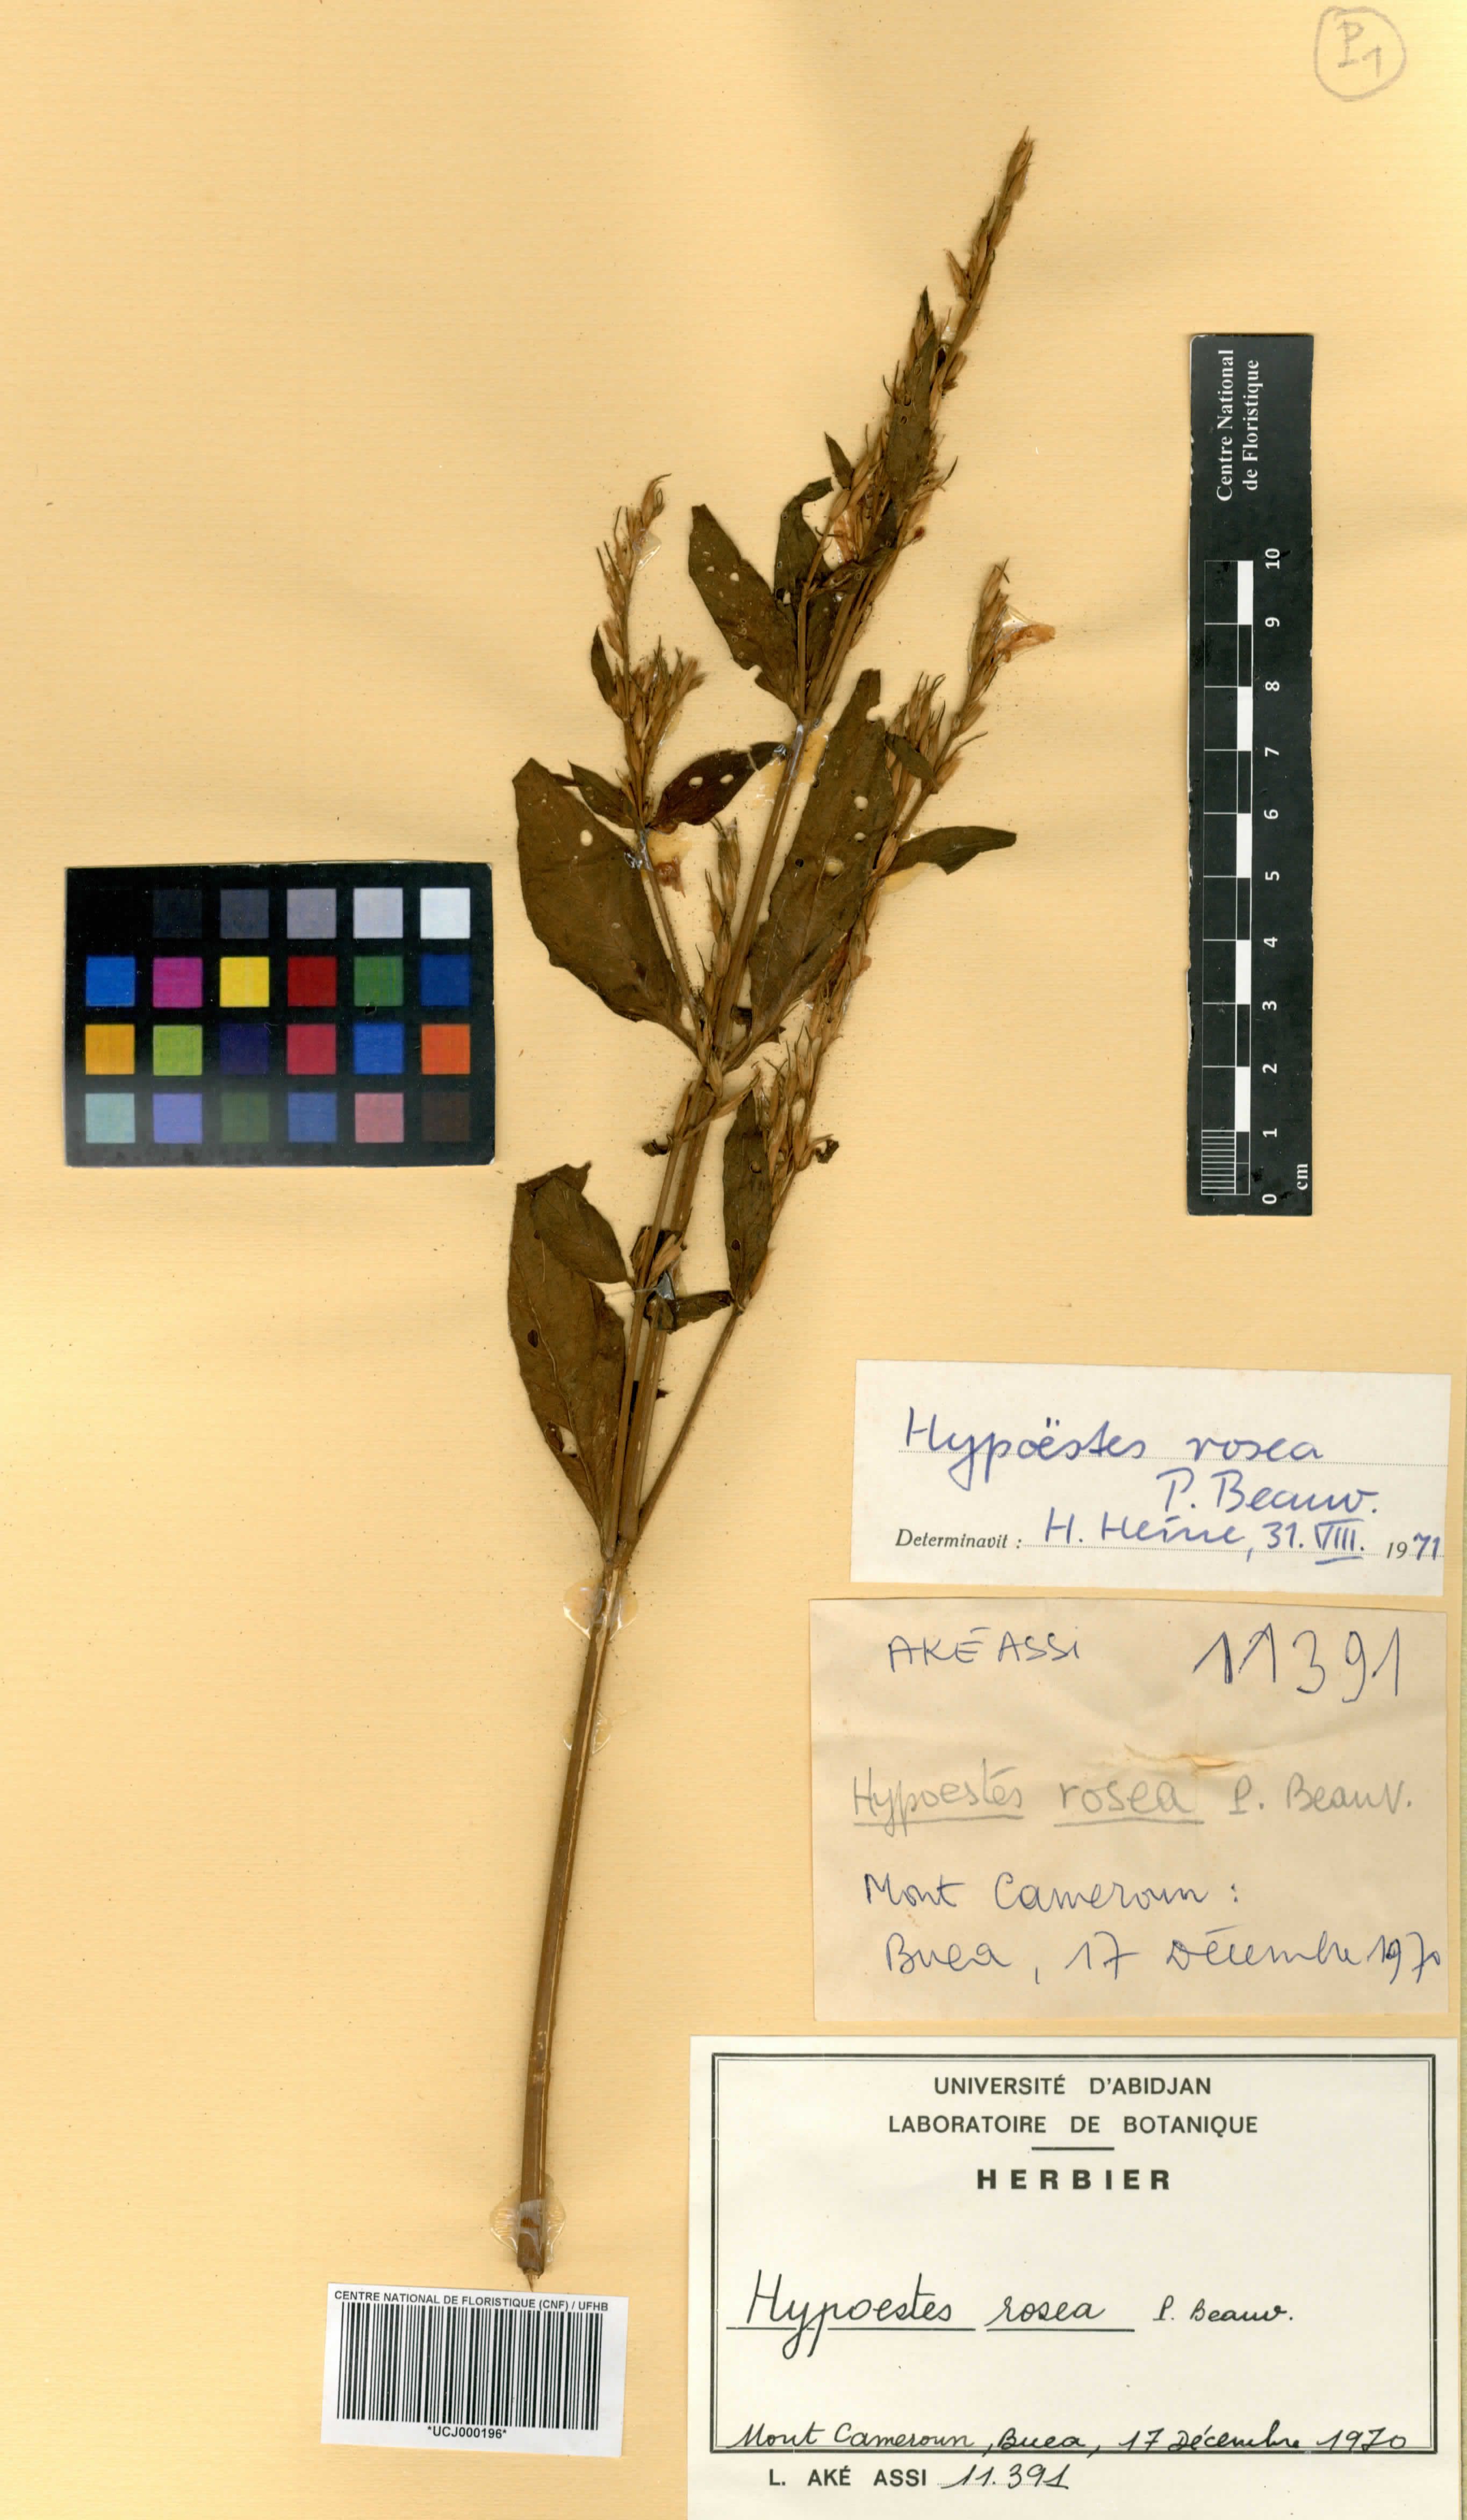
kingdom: Plantae
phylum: Tracheophyta
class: Magnoliopsida
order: Lamiales
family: Acanthaceae
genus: Hypoestes
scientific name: Hypoestes rosea
